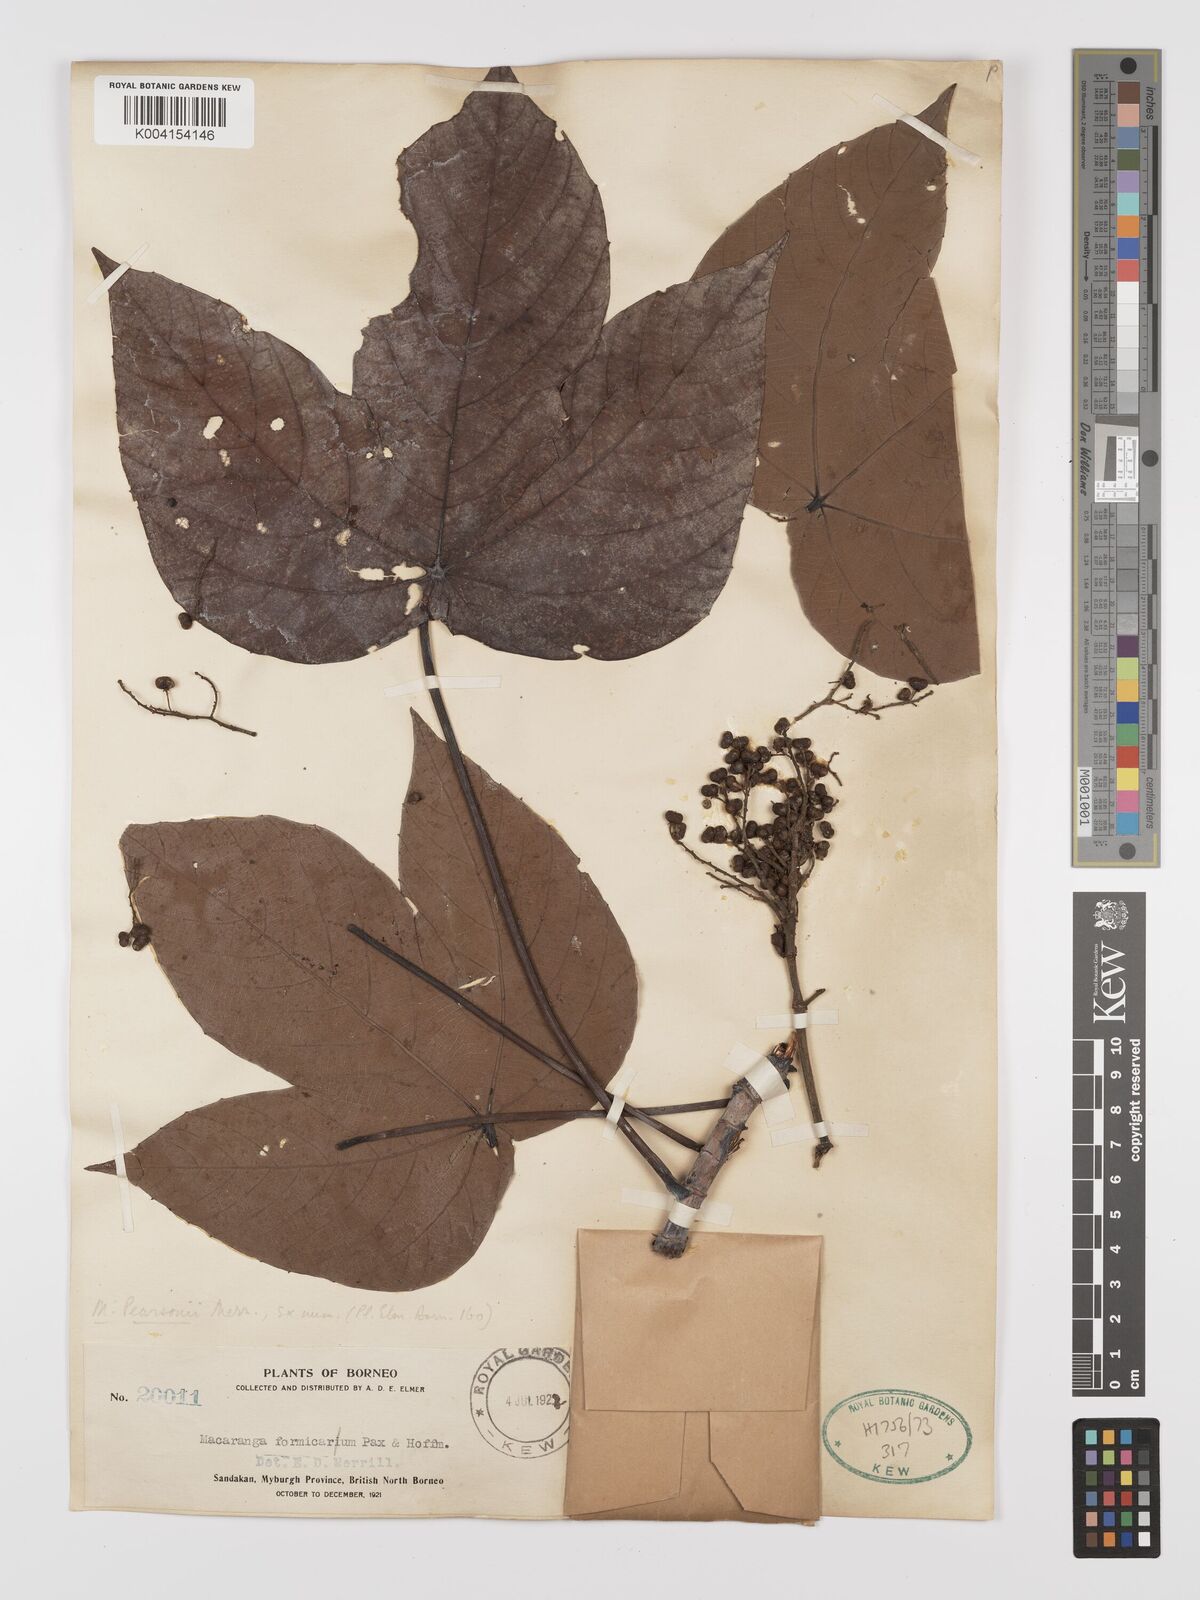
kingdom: Plantae
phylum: Tracheophyta
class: Magnoliopsida
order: Malpighiales
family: Euphorbiaceae
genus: Macaranga
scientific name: Macaranga pearsonii
